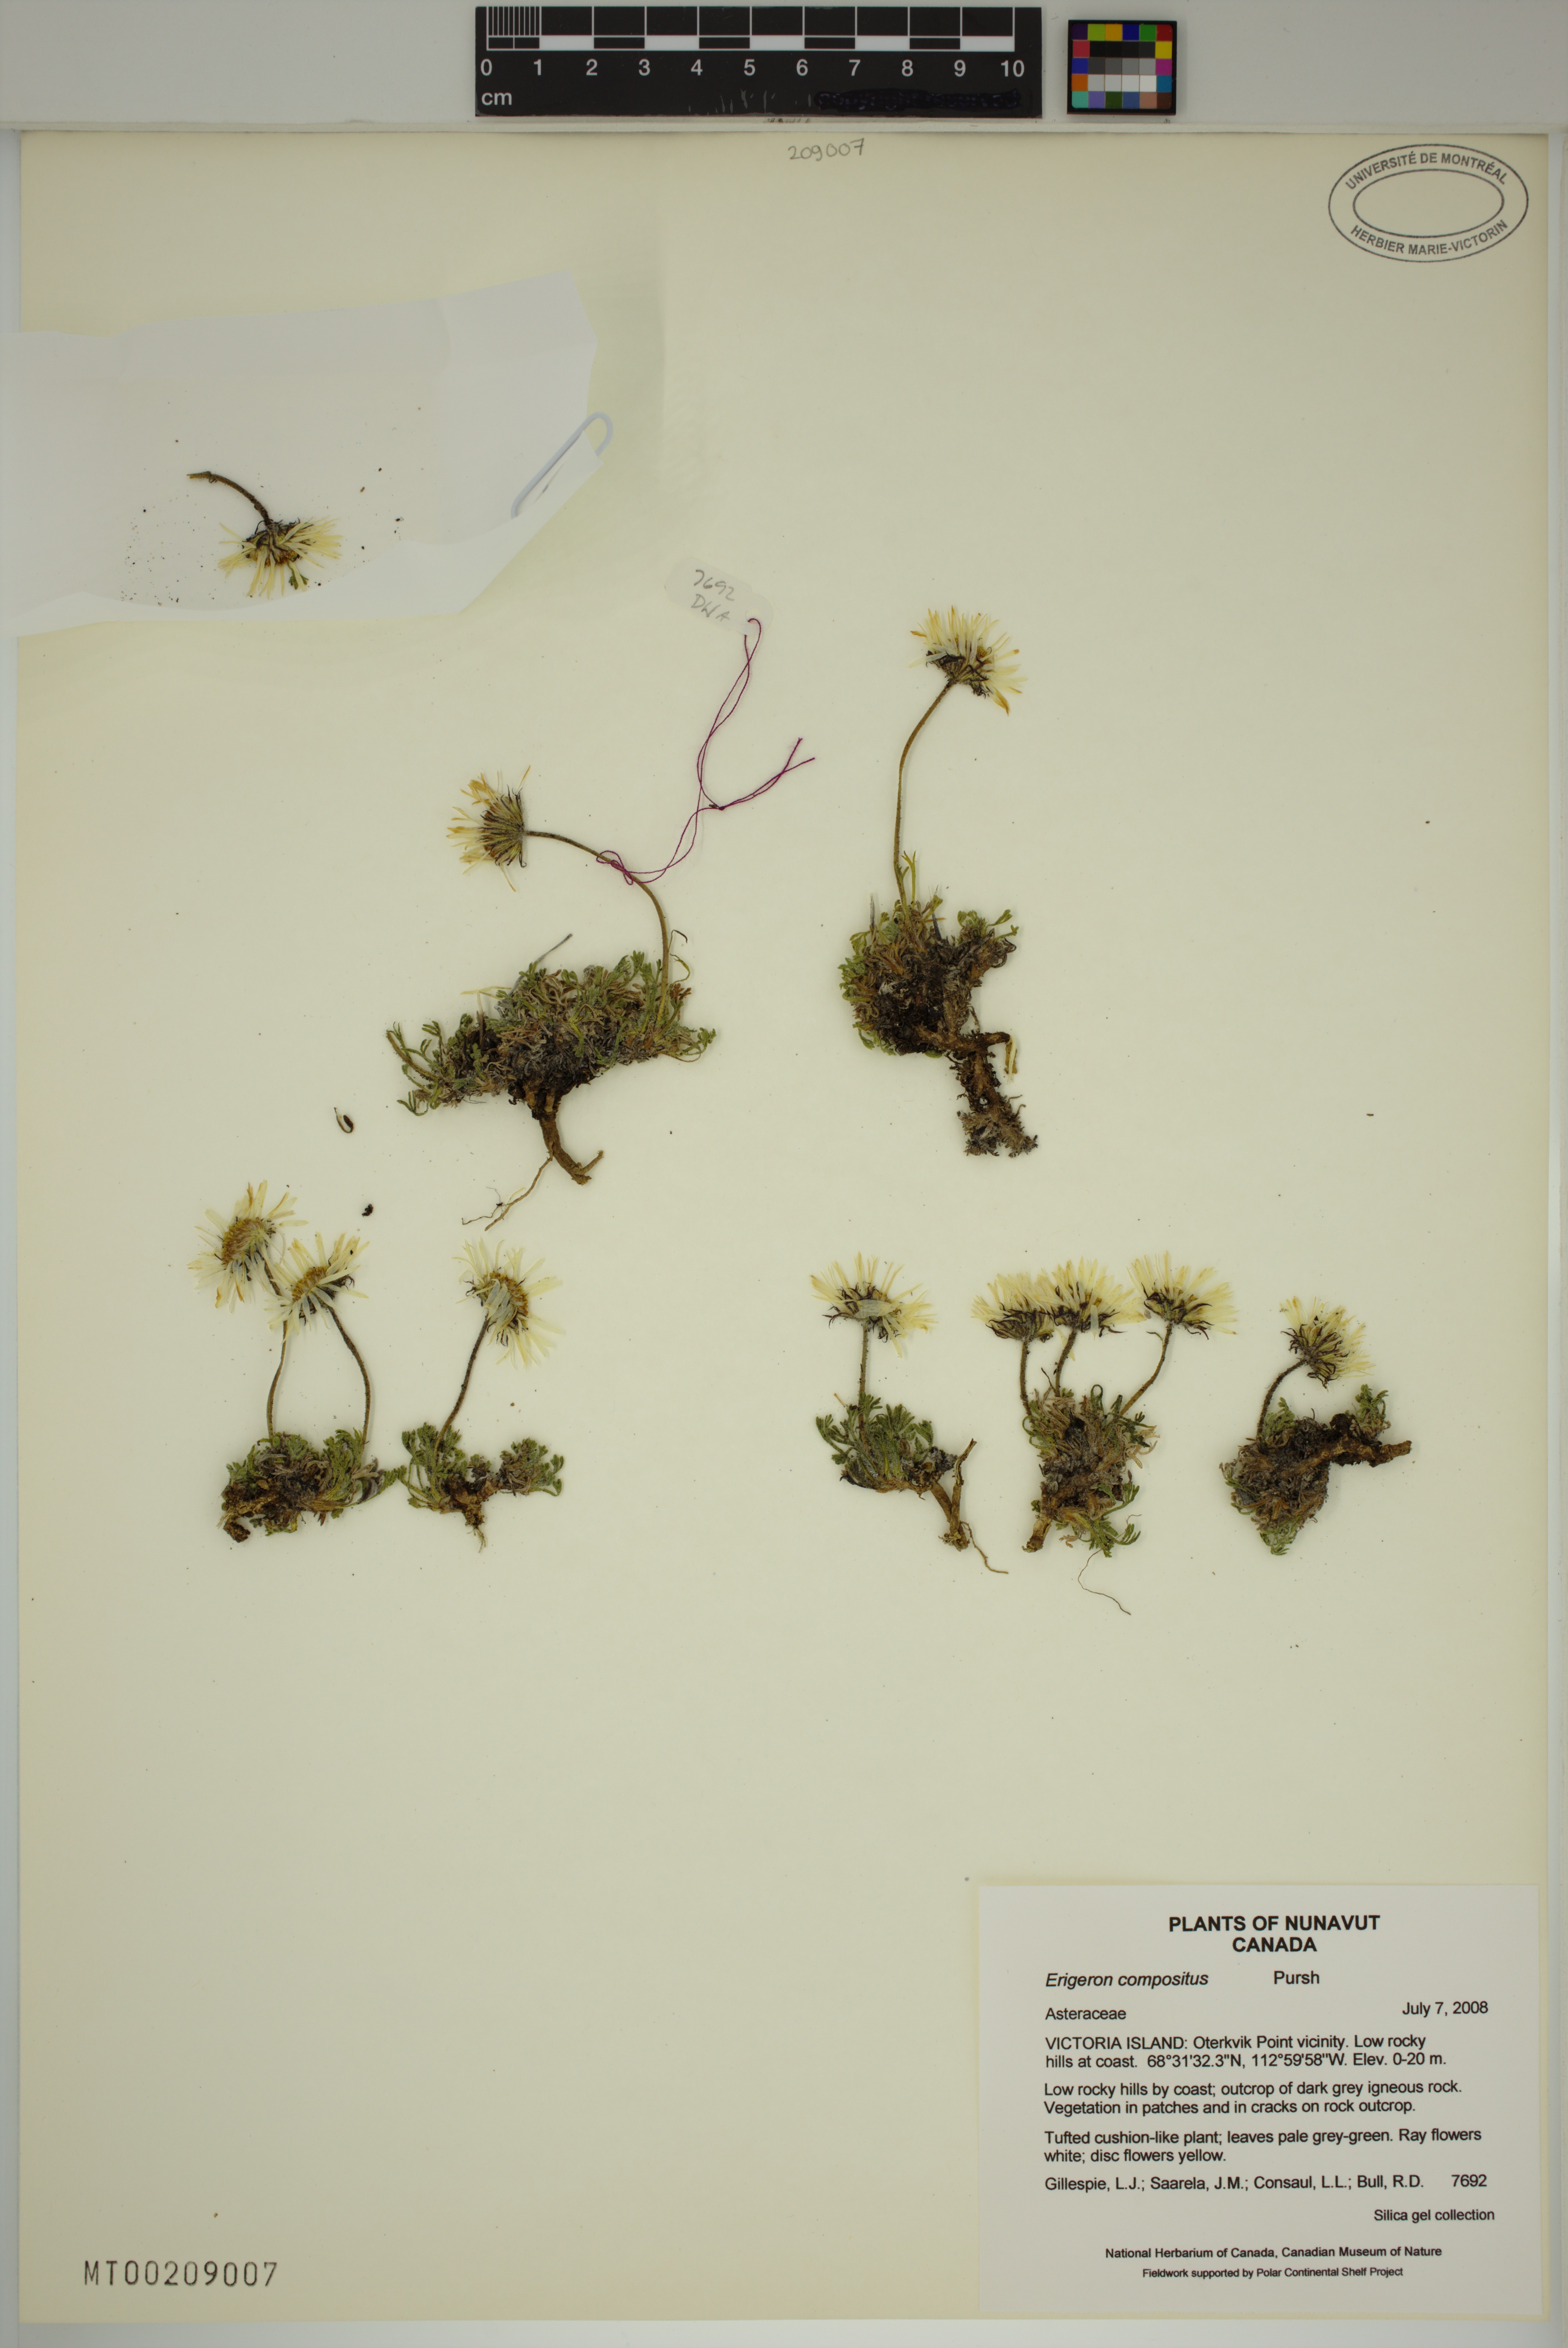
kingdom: Plantae
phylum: Tracheophyta
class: Magnoliopsida
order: Asterales
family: Asteraceae
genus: Erigeron
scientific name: Erigeron compositus
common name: Dwarf mountain fleabane
